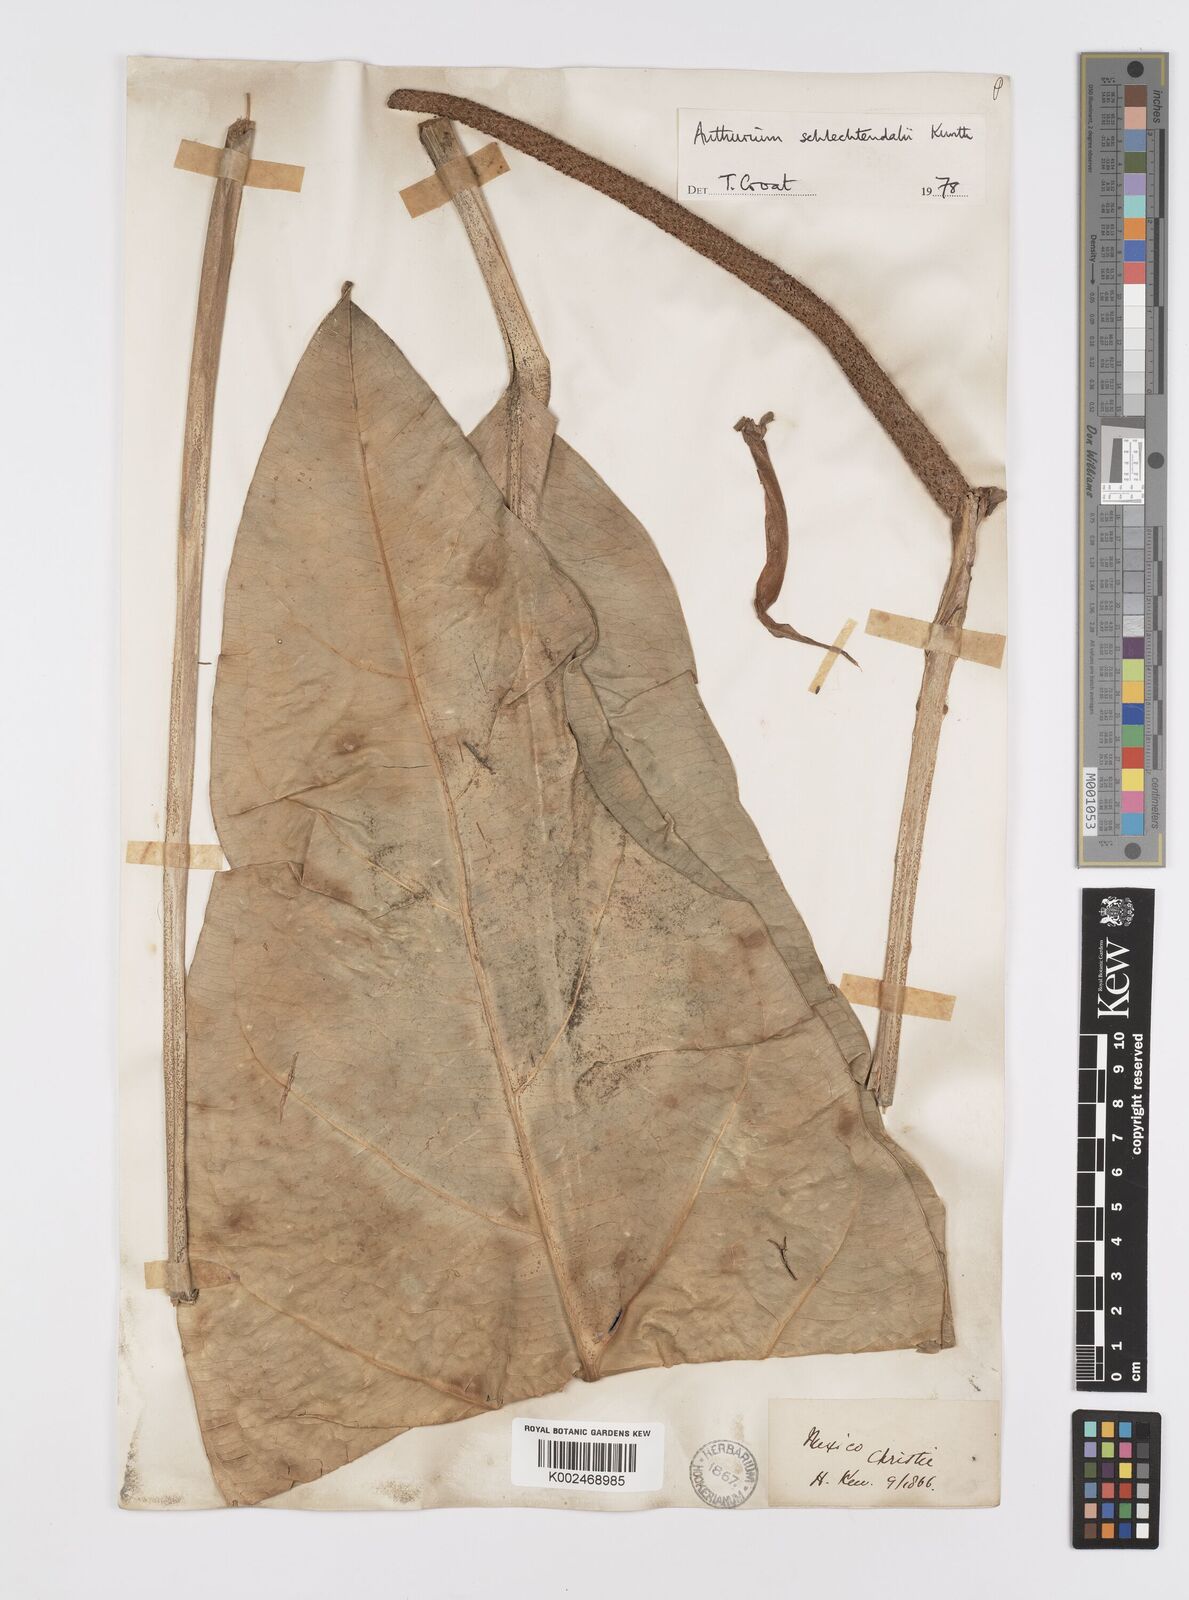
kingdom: Plantae
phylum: Tracheophyta
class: Liliopsida
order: Alismatales
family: Araceae
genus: Anthurium
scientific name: Anthurium schlechtendalii
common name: Laceleaf
